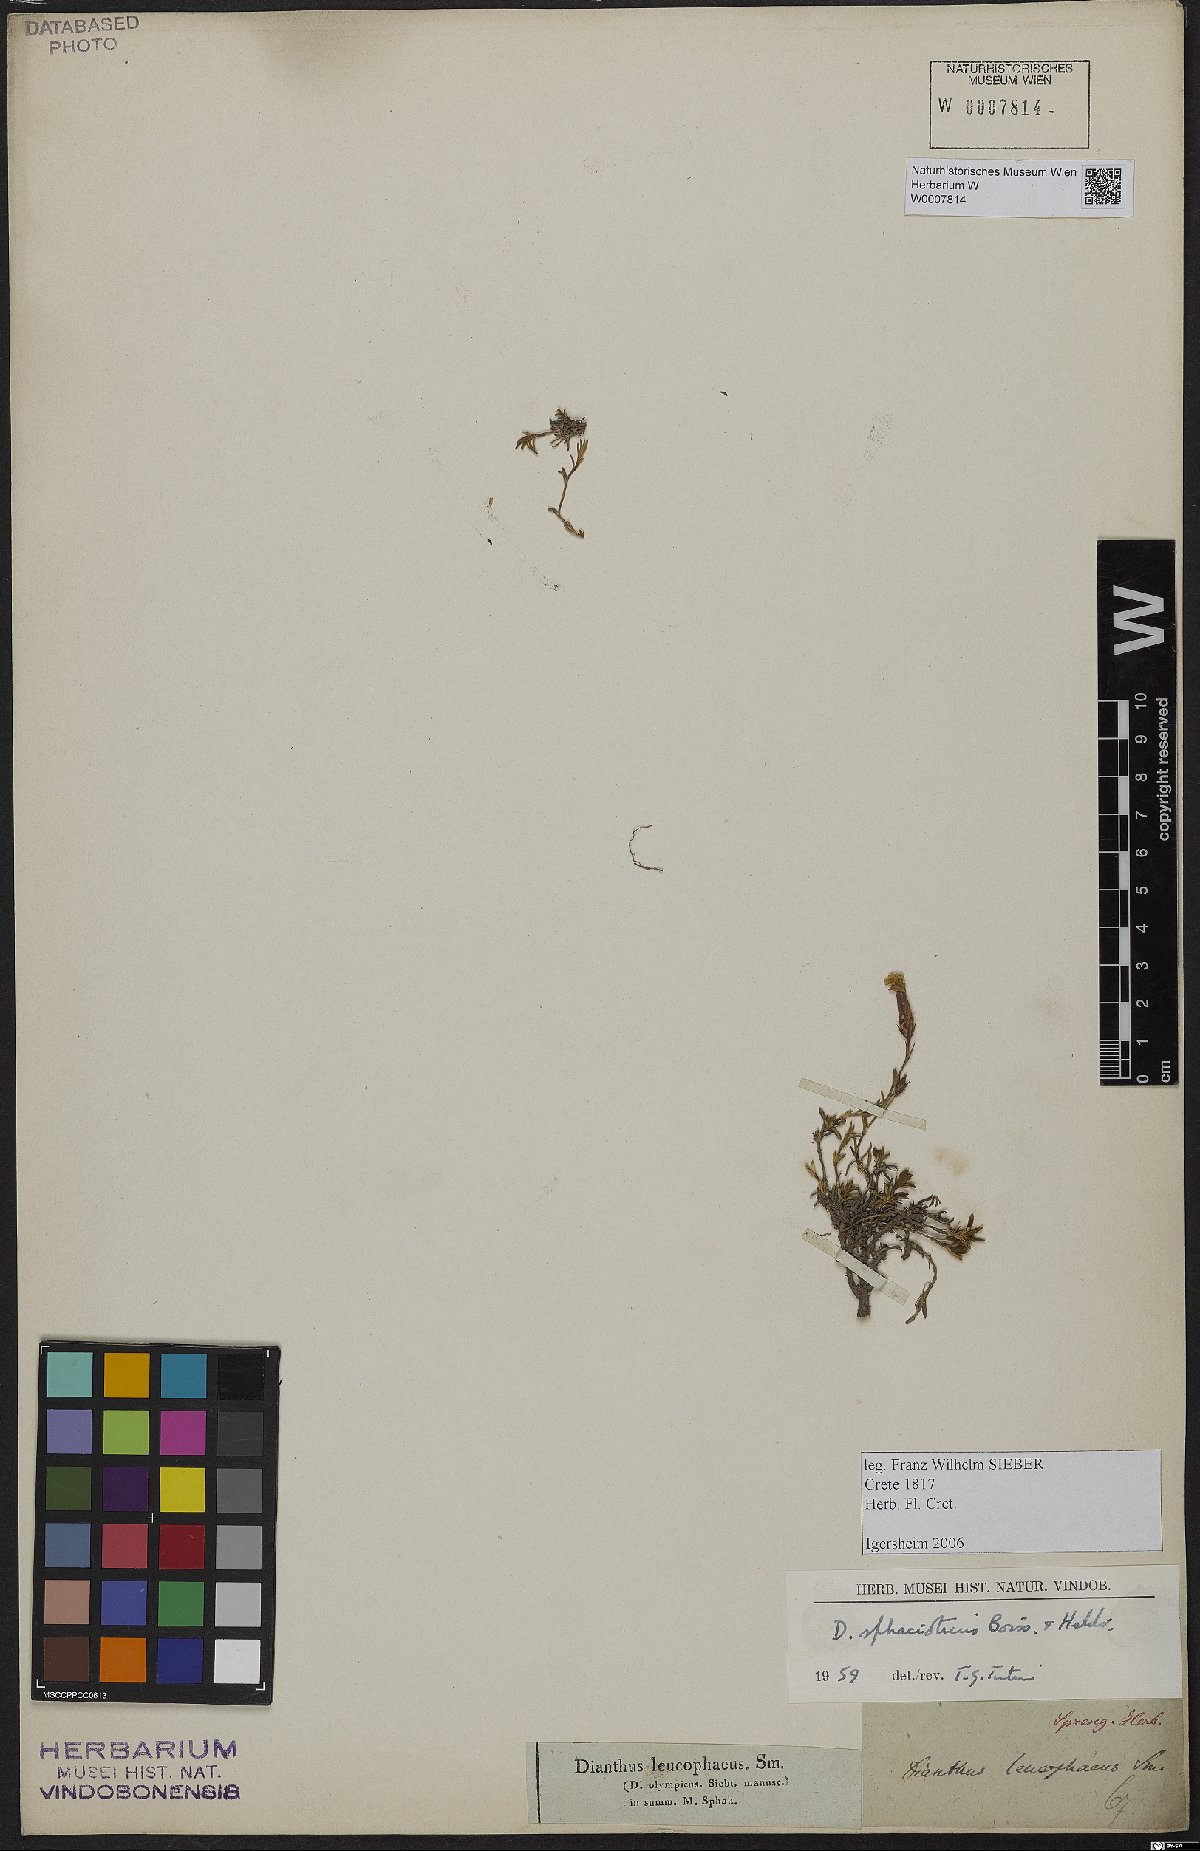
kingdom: Plantae
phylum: Tracheophyta
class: Magnoliopsida
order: Caryophyllales
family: Caryophyllaceae
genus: Dianthus
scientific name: Dianthus sphacioticus
